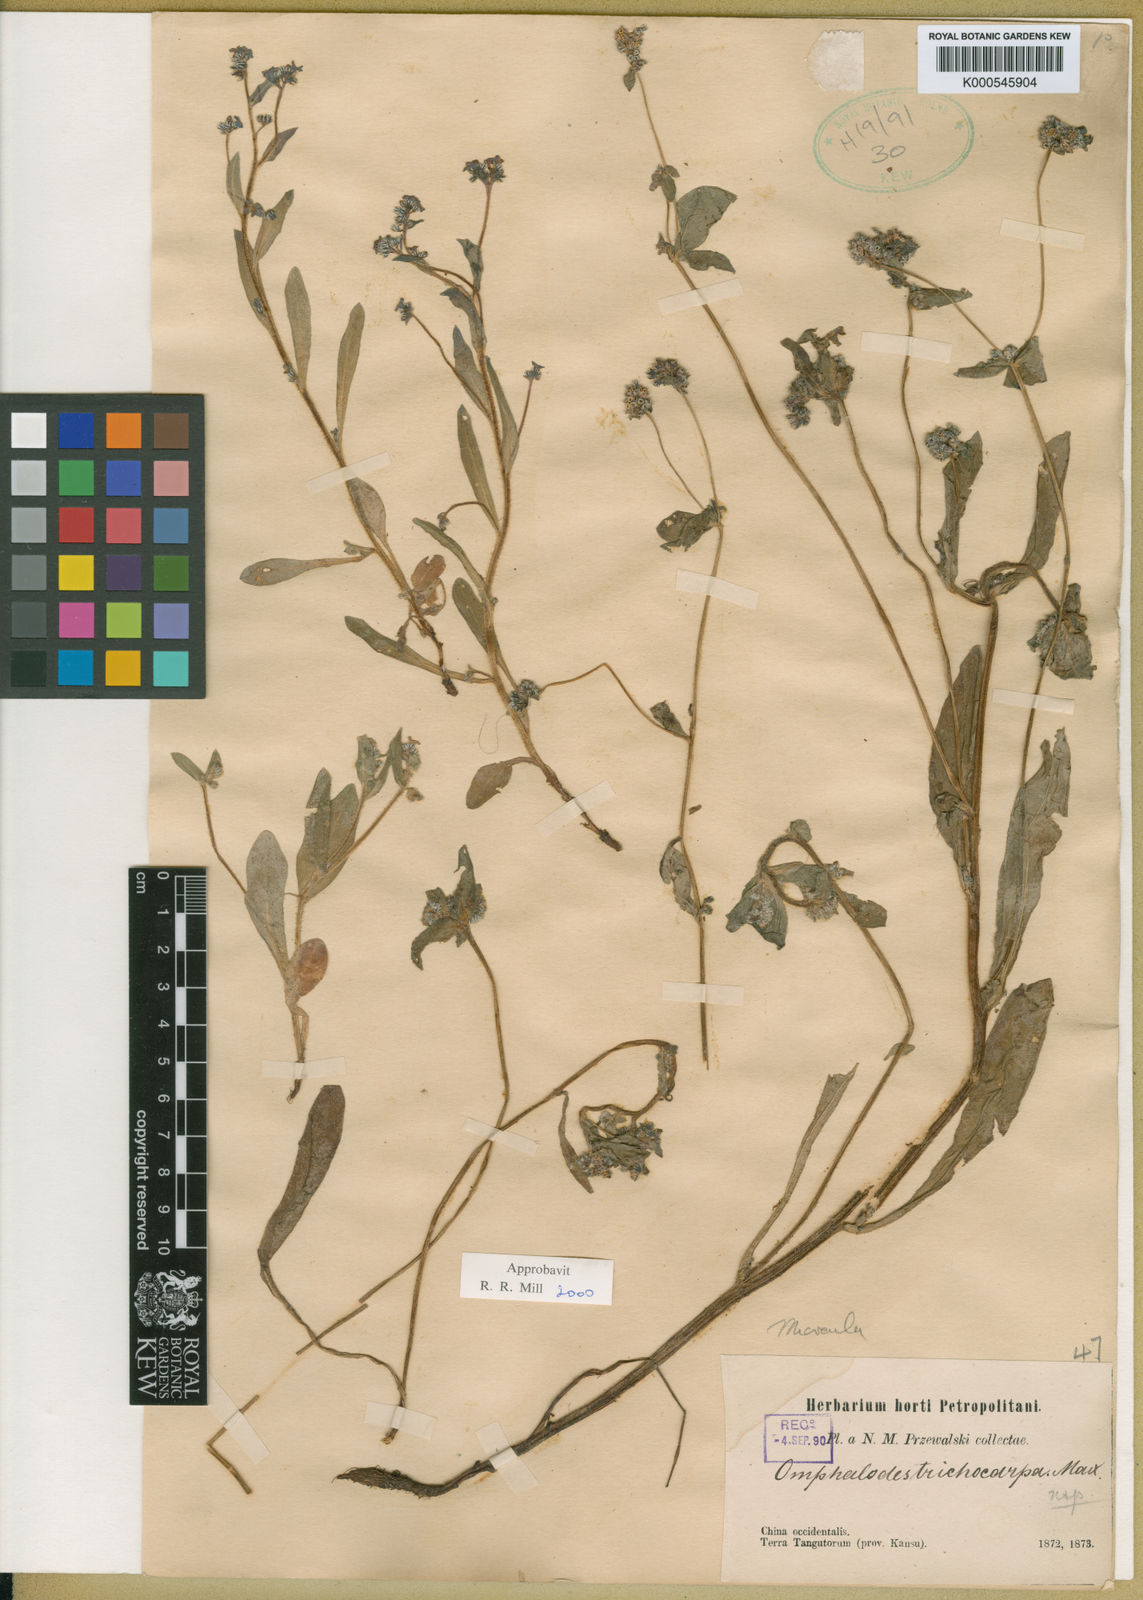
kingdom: Plantae
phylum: Tracheophyta
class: Magnoliopsida
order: Boraginales
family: Boraginaceae
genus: Microula
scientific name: Microula trichocarpa
